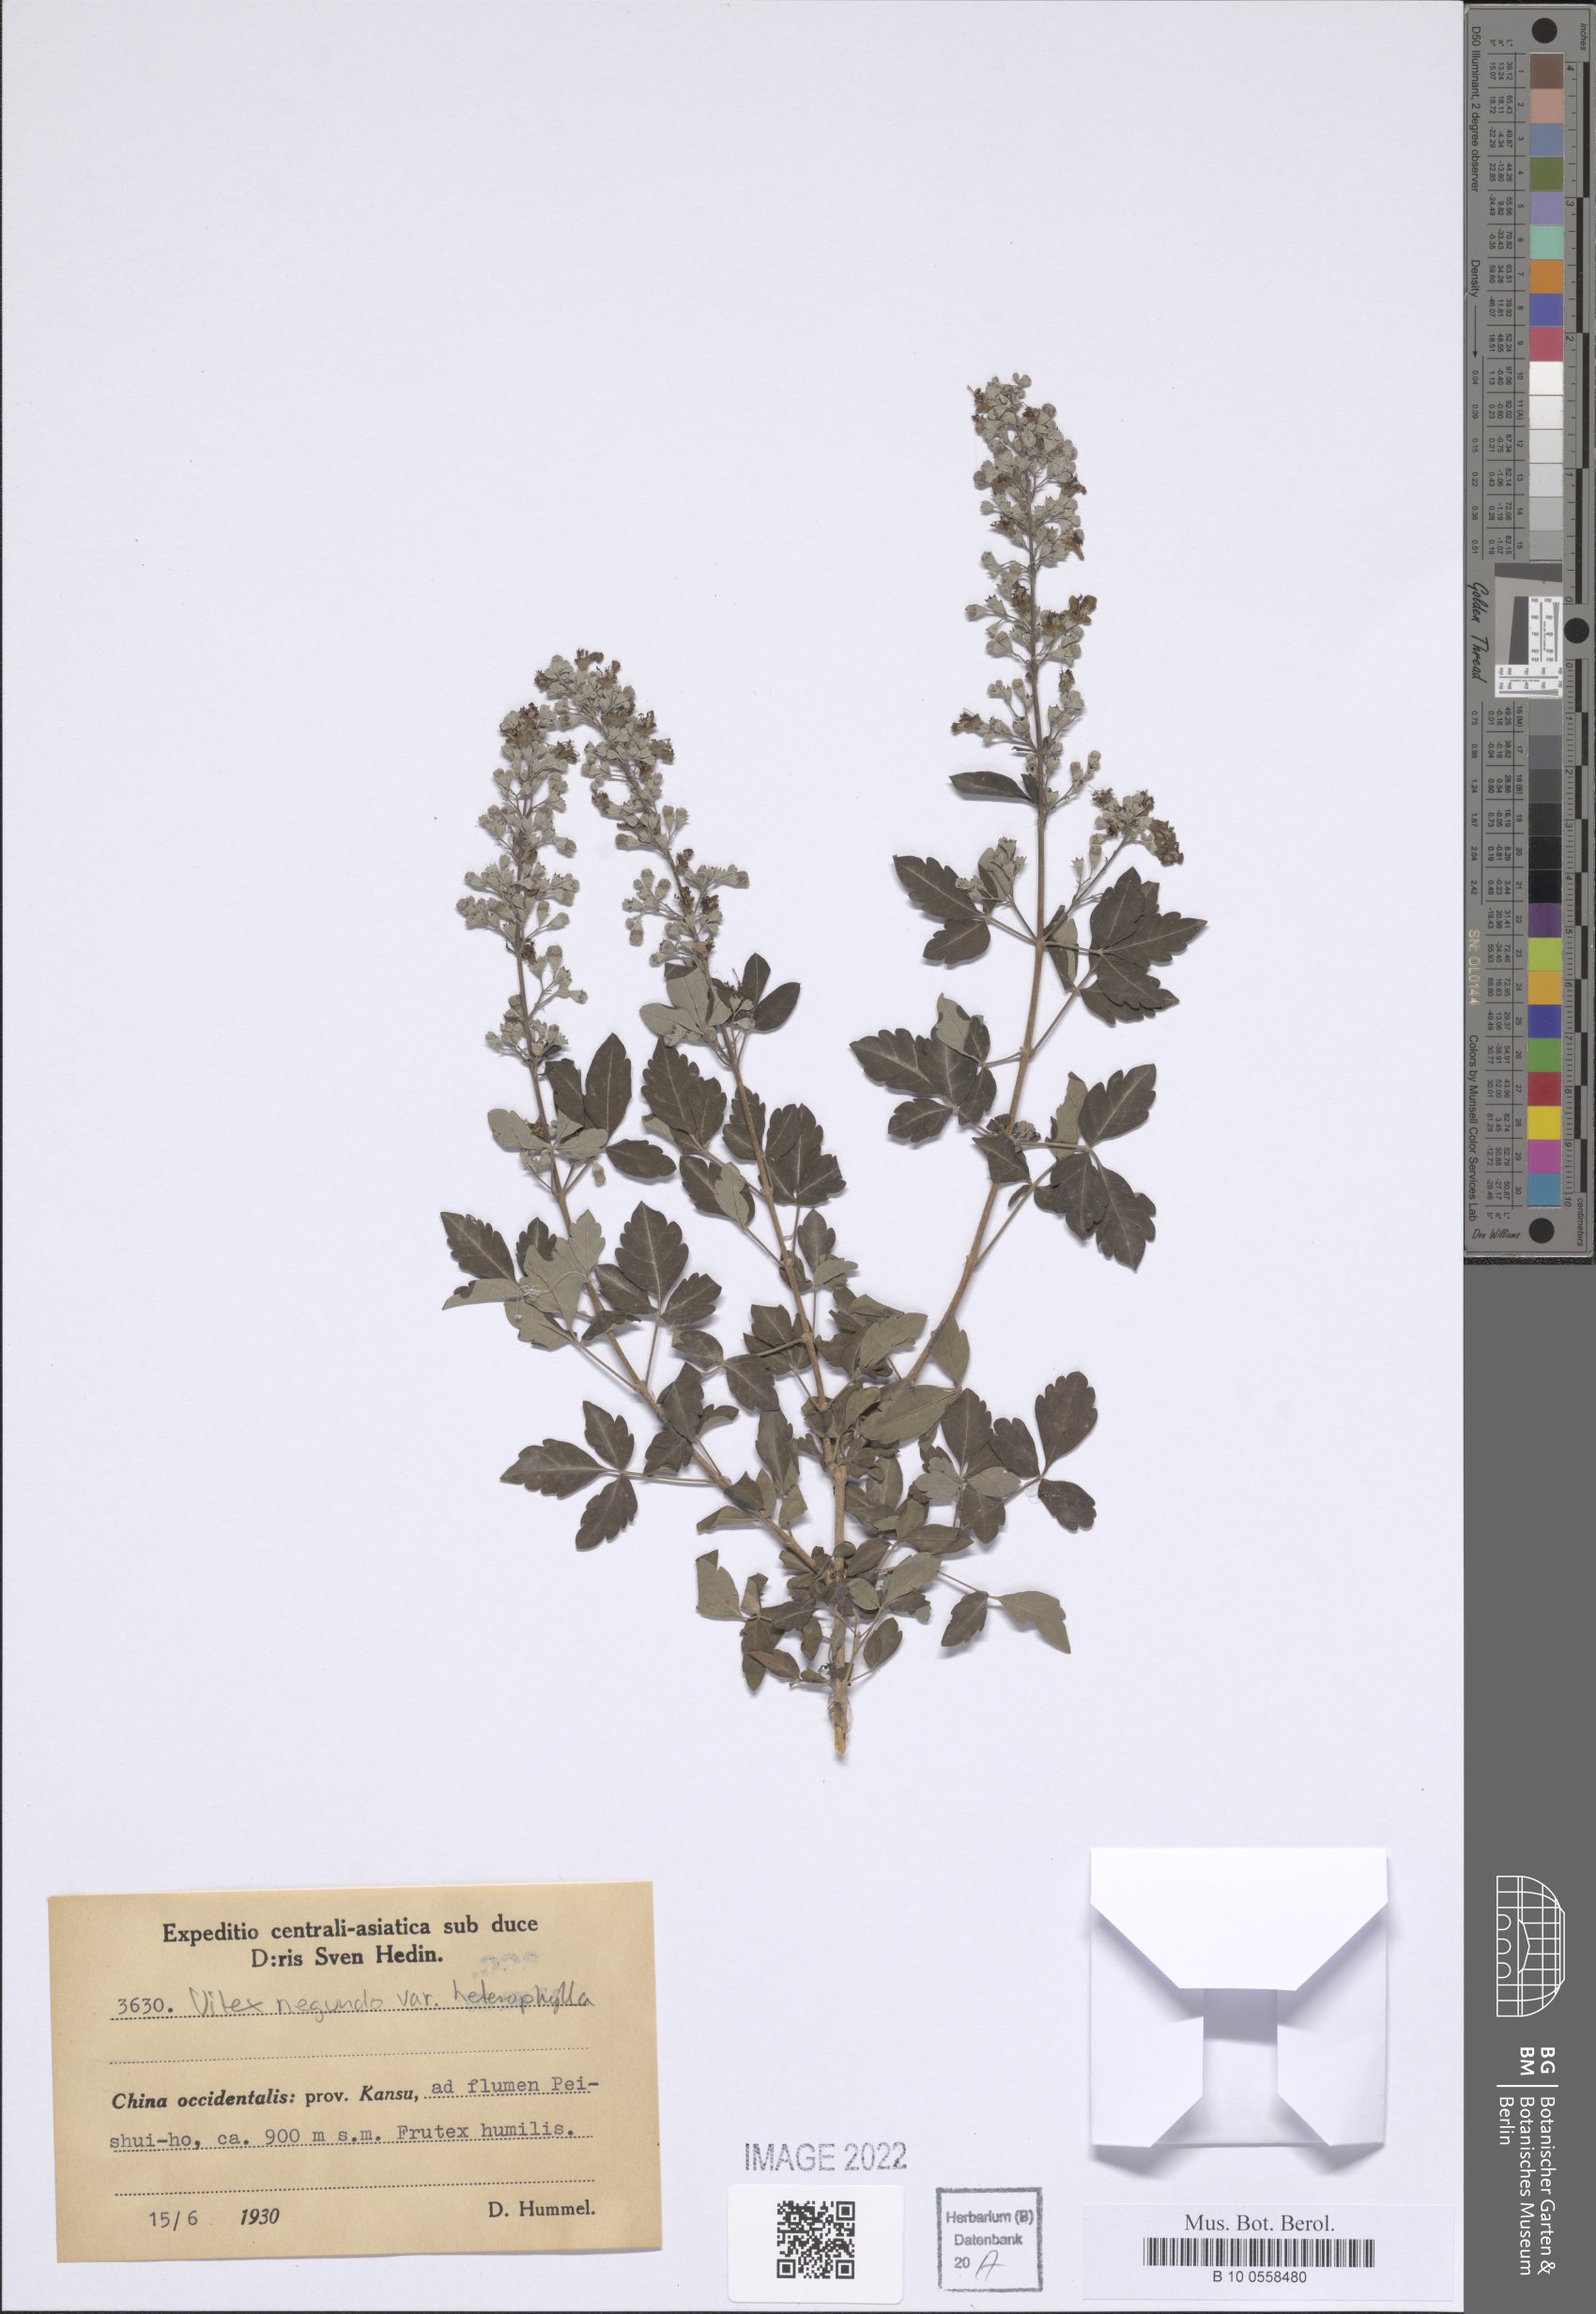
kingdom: Plantae
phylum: Tracheophyta
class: Magnoliopsida
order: Lamiales
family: Lamiaceae
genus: Vitex
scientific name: Vitex negundo
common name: Chinese chastetree
